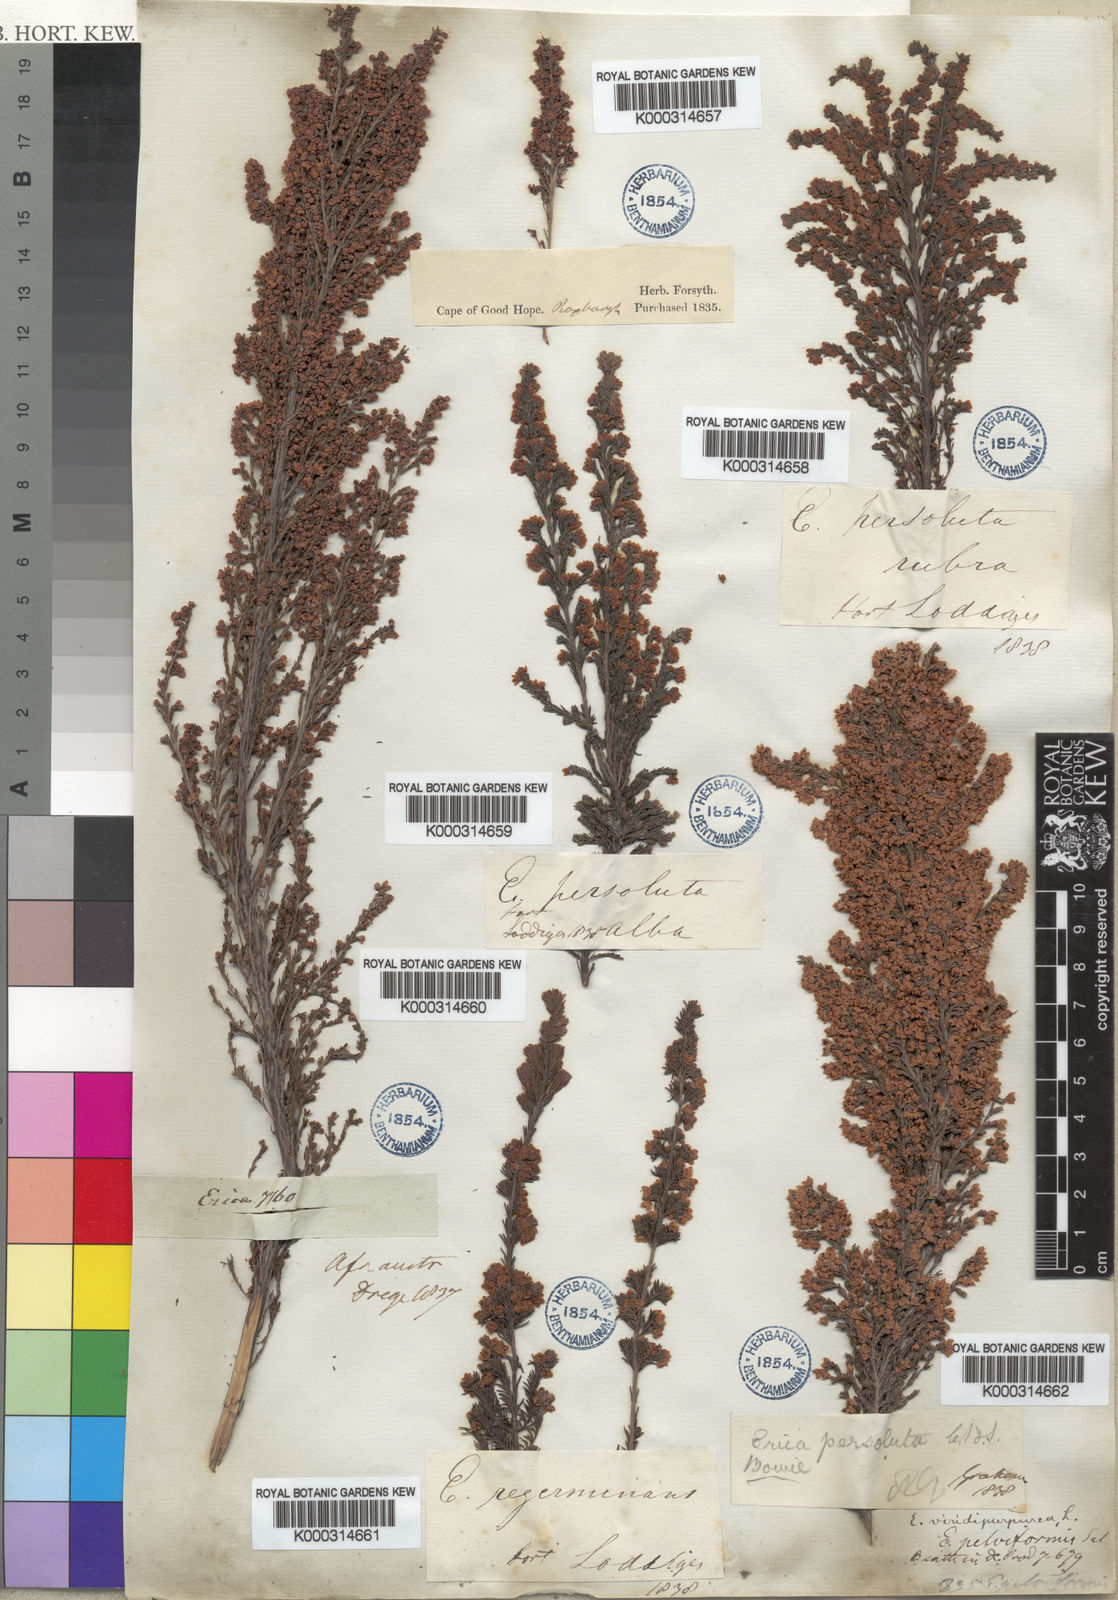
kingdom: Plantae
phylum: Tracheophyta
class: Magnoliopsida
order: Ericales
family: Ericaceae
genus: Erica
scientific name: Erica mauritanica
